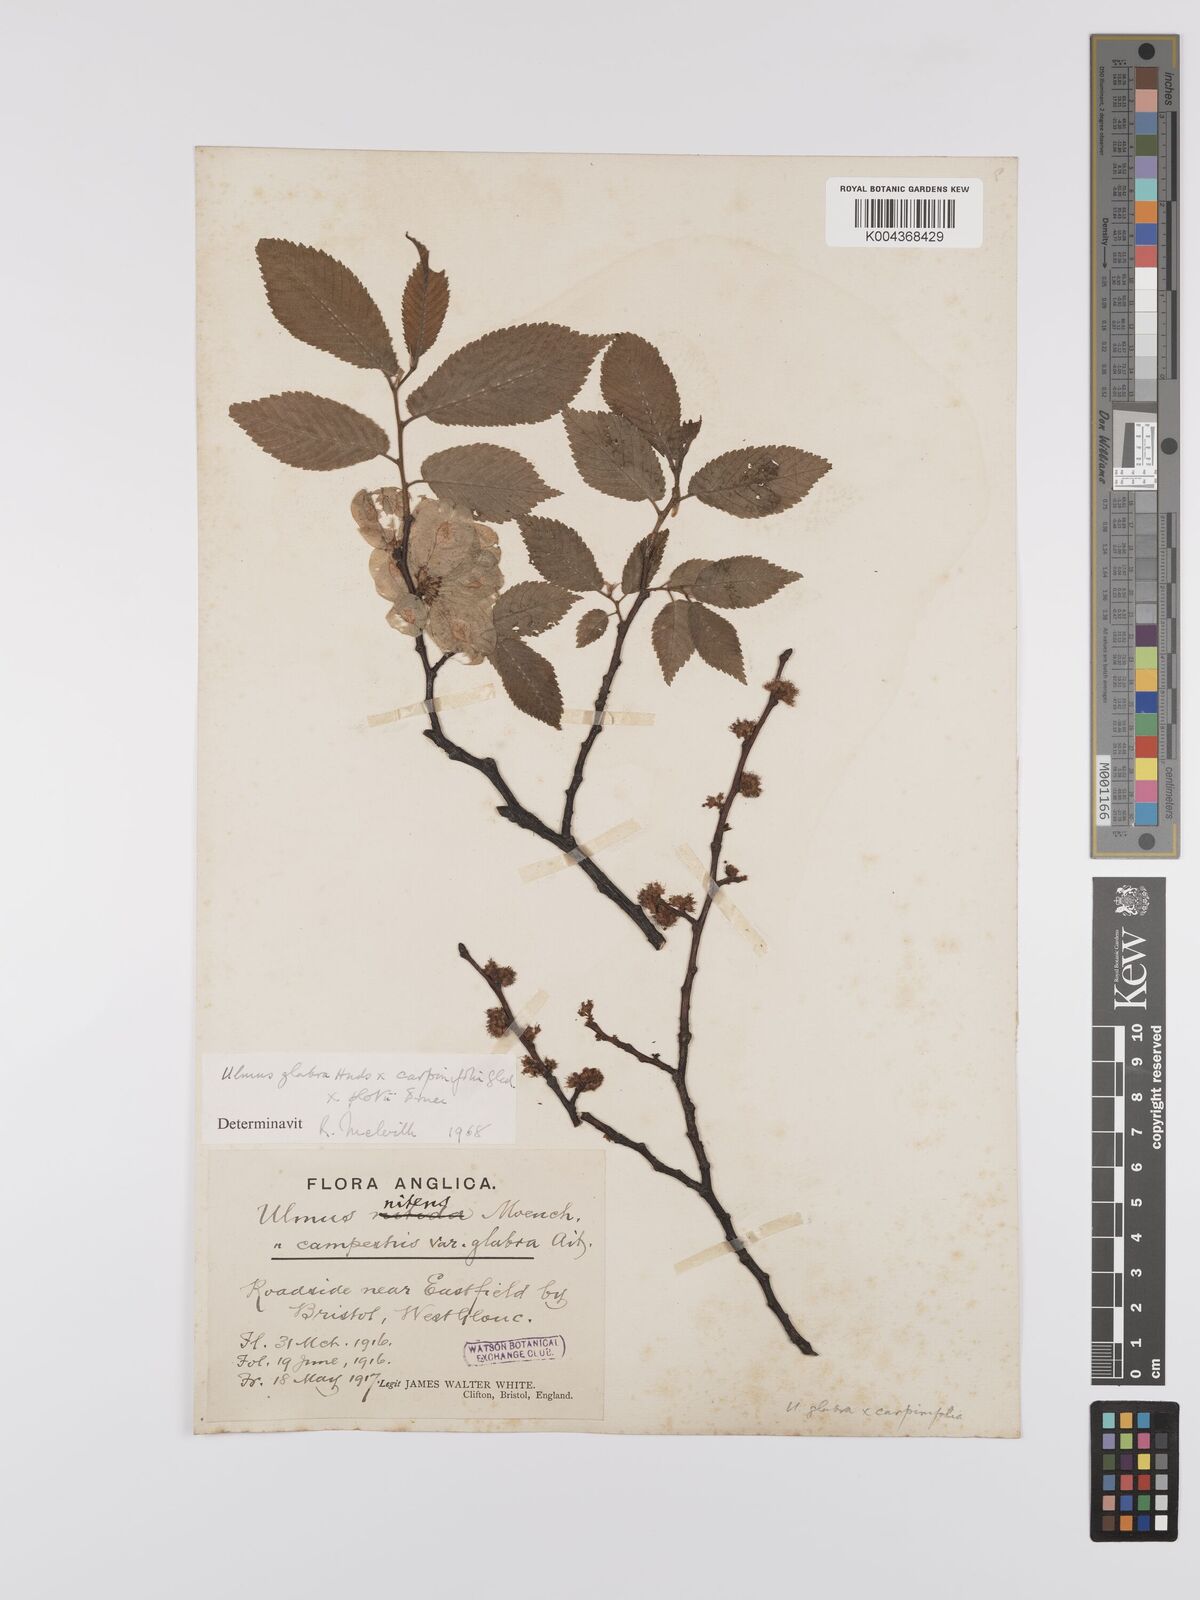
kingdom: Plantae
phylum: Tracheophyta
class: Magnoliopsida
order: Rosales
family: Ulmaceae
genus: Ulmus
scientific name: Ulmus
